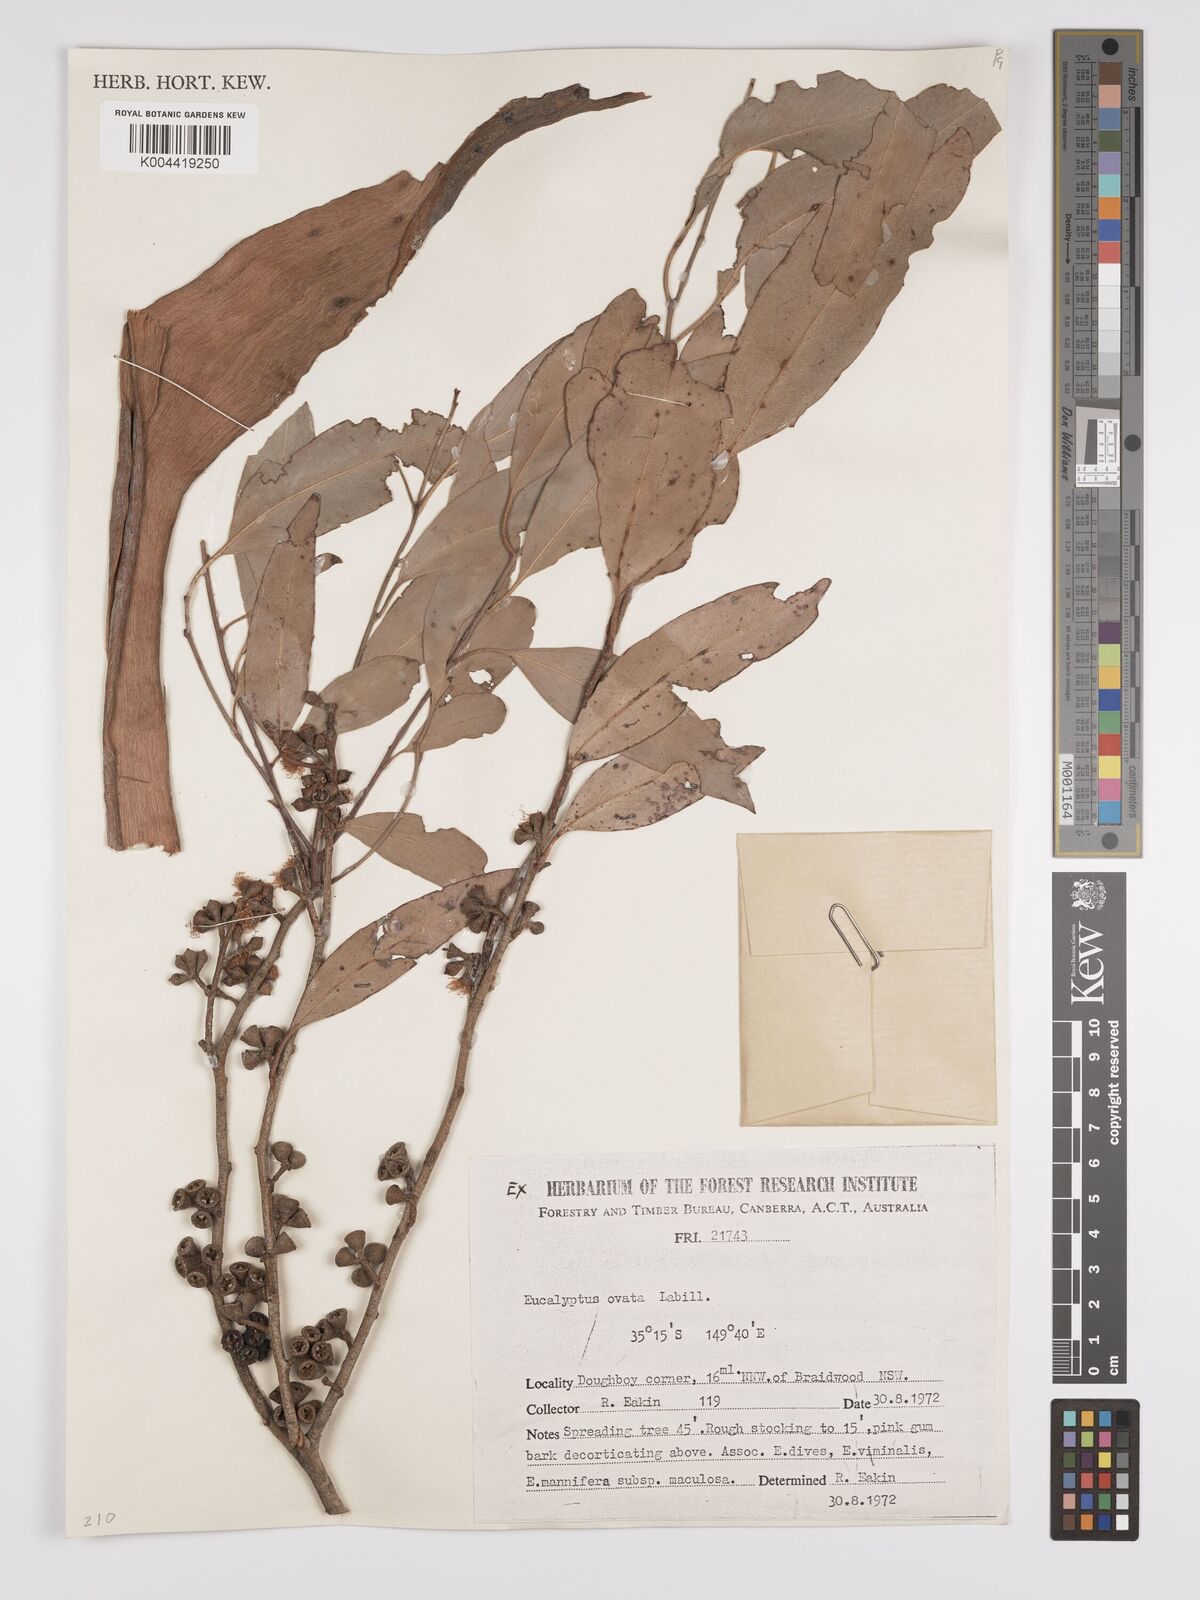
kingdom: Plantae
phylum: Tracheophyta
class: Magnoliopsida
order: Myrtales
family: Myrtaceae
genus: Eucalyptus
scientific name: Eucalyptus ovata
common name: Black-gum
